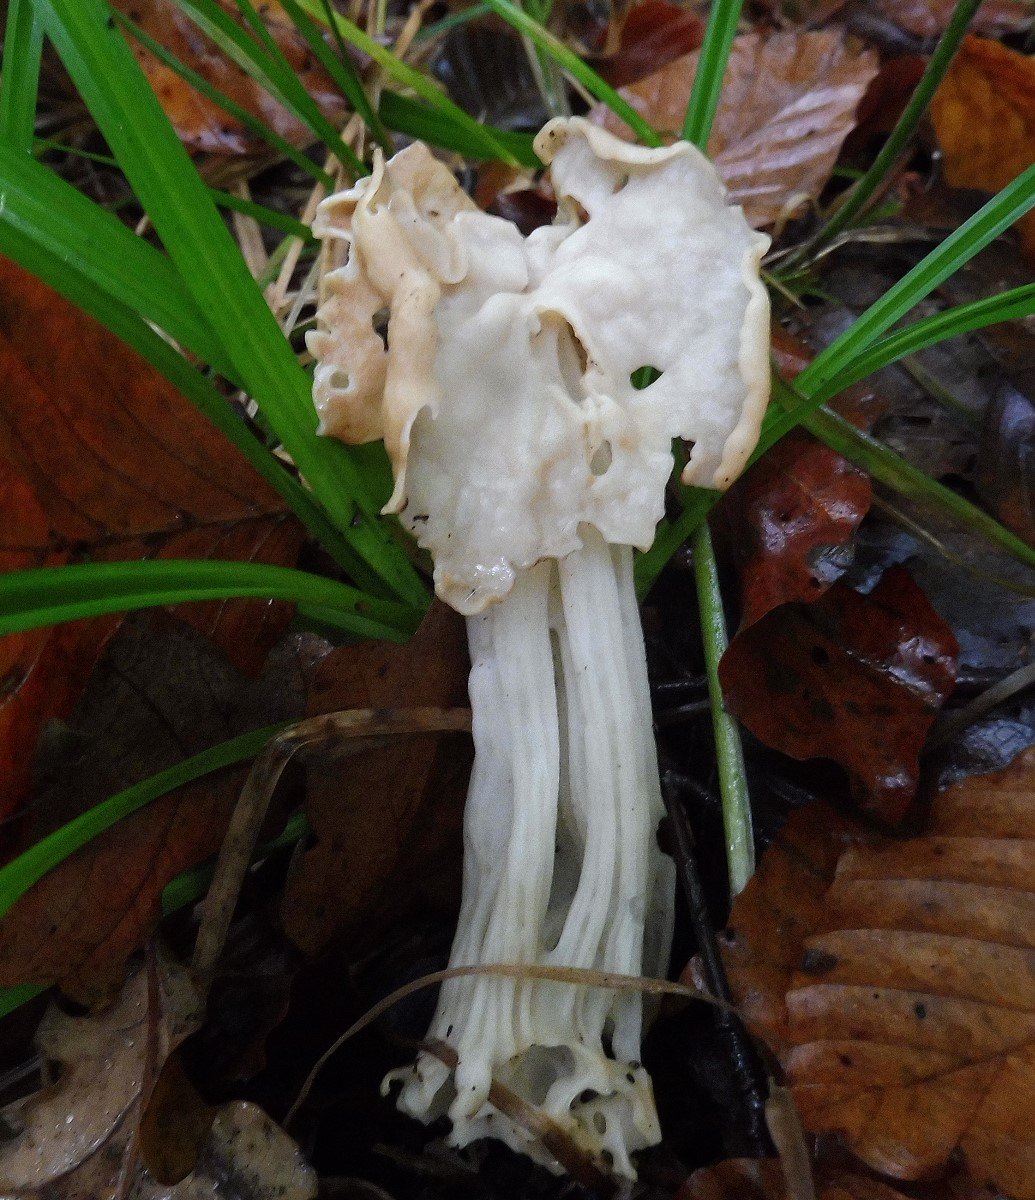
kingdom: Fungi
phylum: Ascomycota
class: Pezizomycetes
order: Pezizales
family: Helvellaceae
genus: Helvella
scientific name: Helvella crispa
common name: kruset foldhat
